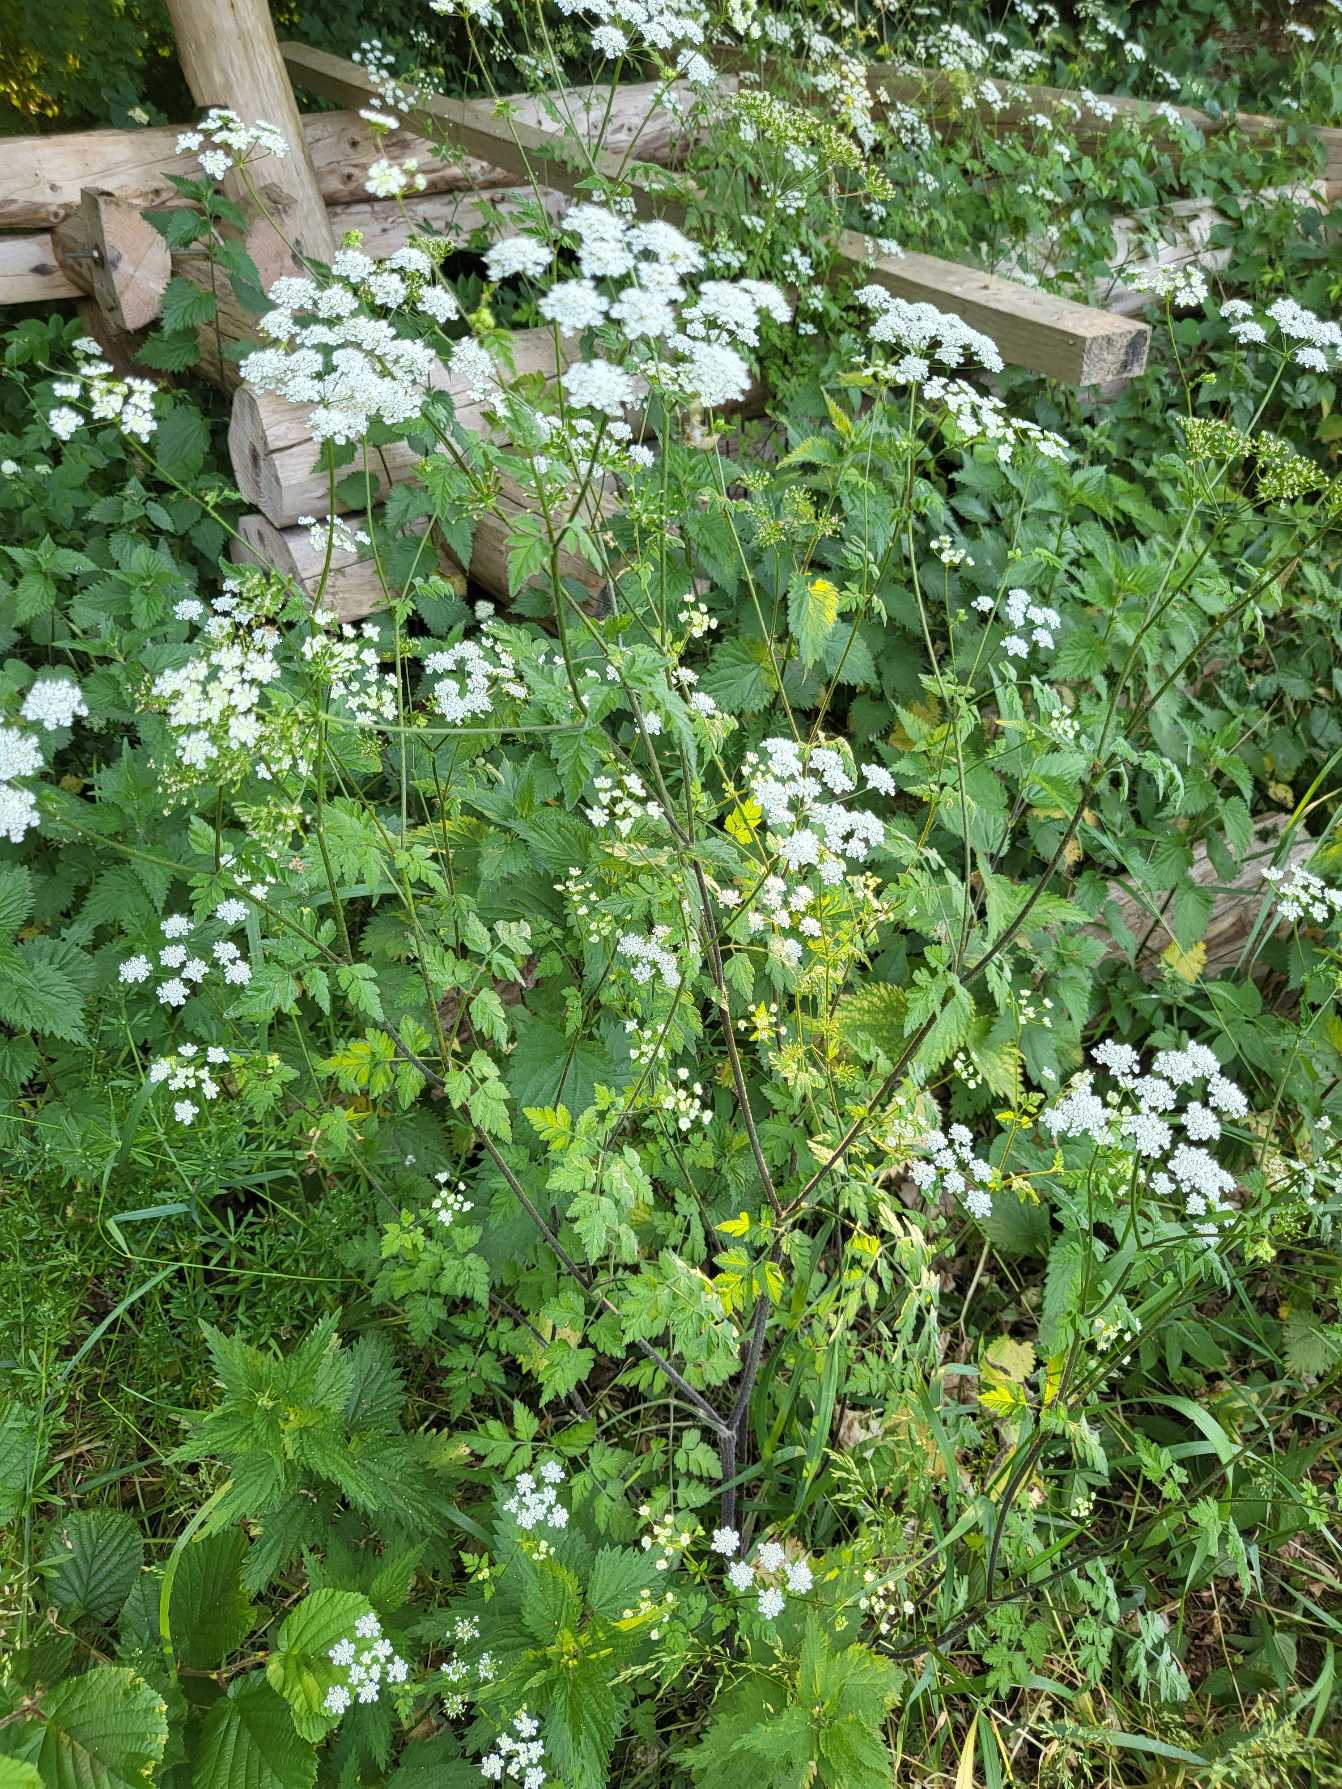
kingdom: Plantae
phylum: Tracheophyta
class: Magnoliopsida
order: Apiales
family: Apiaceae
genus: Chaerophyllum
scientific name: Chaerophyllum temulum
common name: Almindelig hulsvøb
